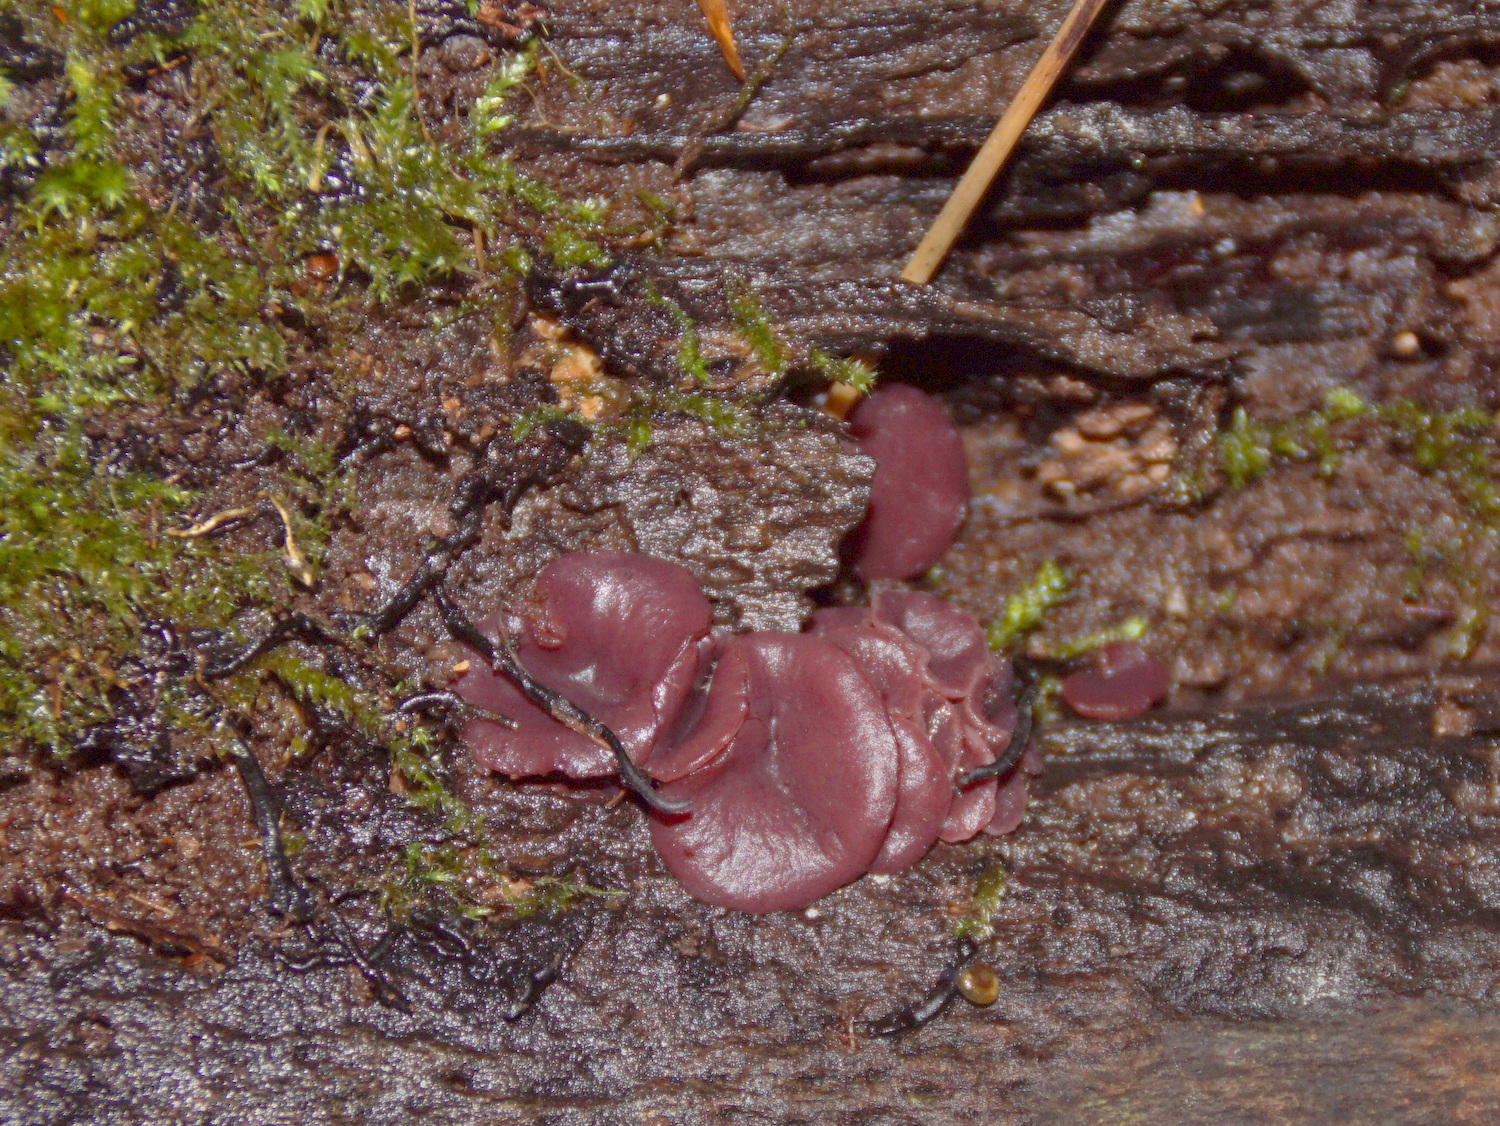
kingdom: Fungi
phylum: Ascomycota
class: Leotiomycetes
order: Helotiales
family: Gelatinodiscaceae
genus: Ascocoryne
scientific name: Ascocoryne cylichnium
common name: stor sejskive
